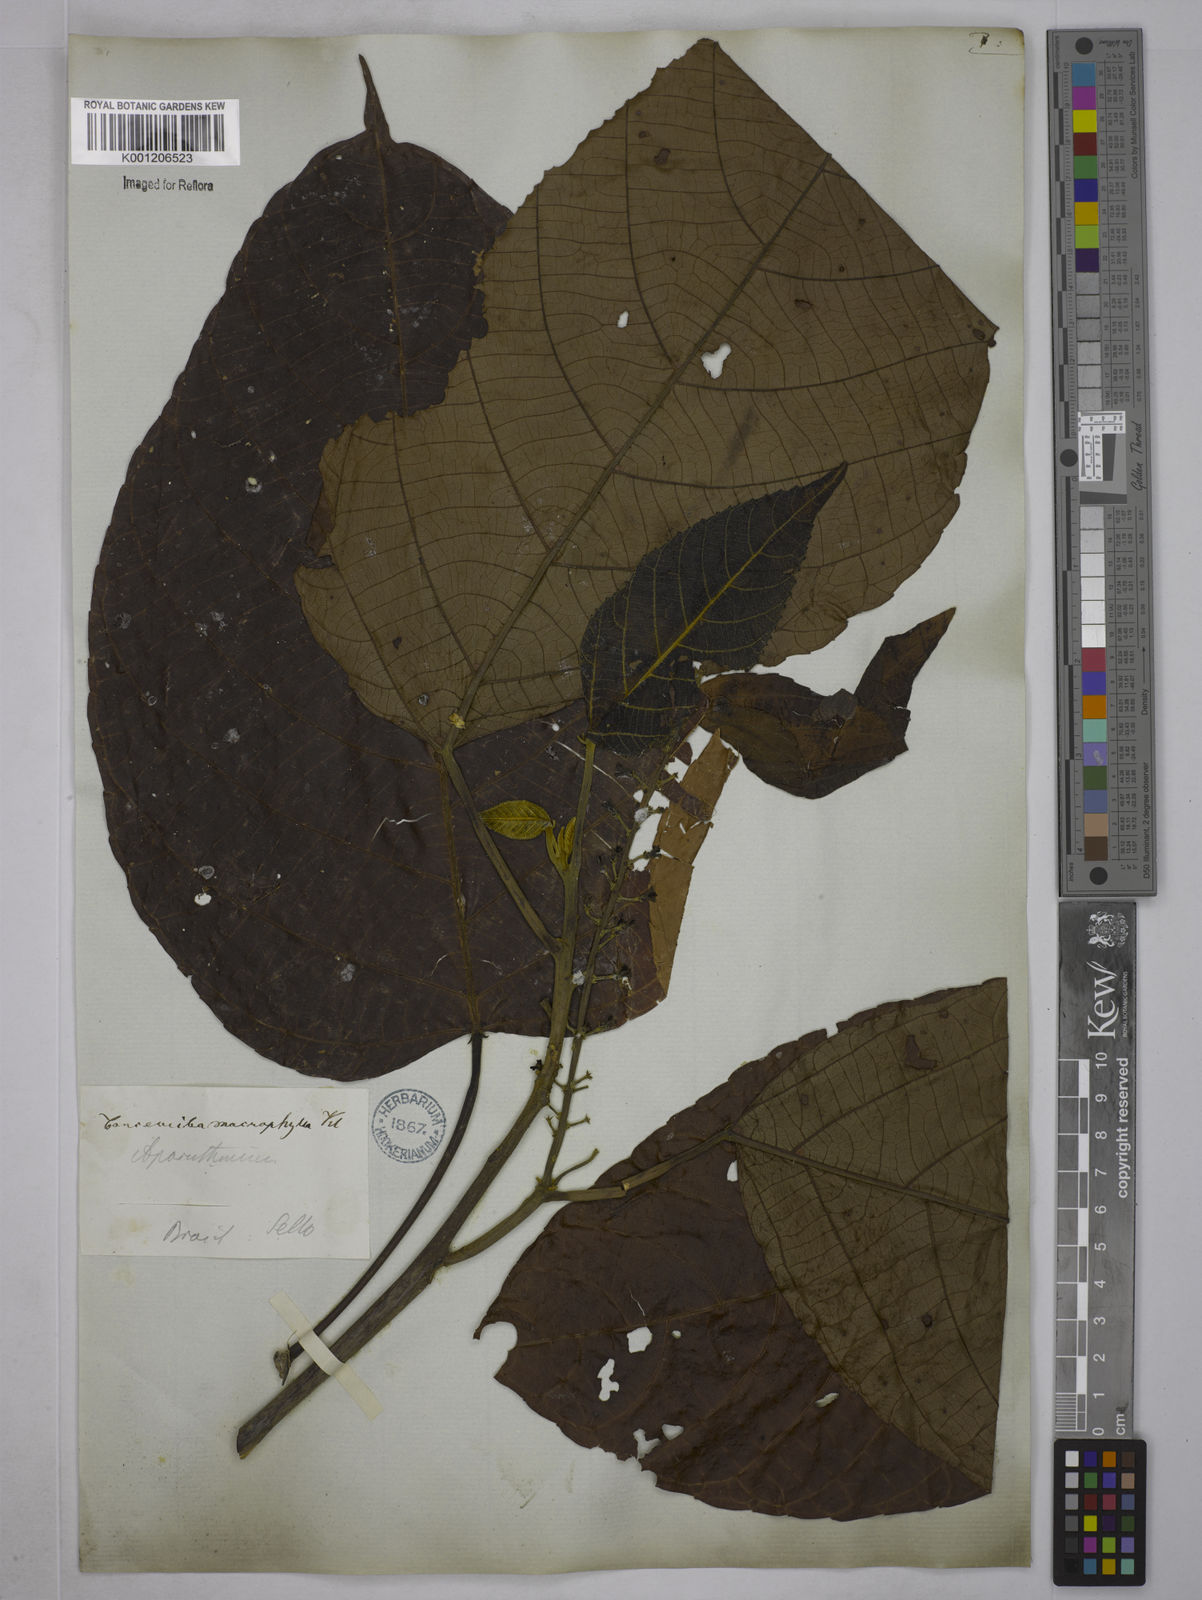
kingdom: Plantae
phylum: Tracheophyta
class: Magnoliopsida
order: Malpighiales
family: Euphorbiaceae
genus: Aparisthmium
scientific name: Aparisthmium cordatum
